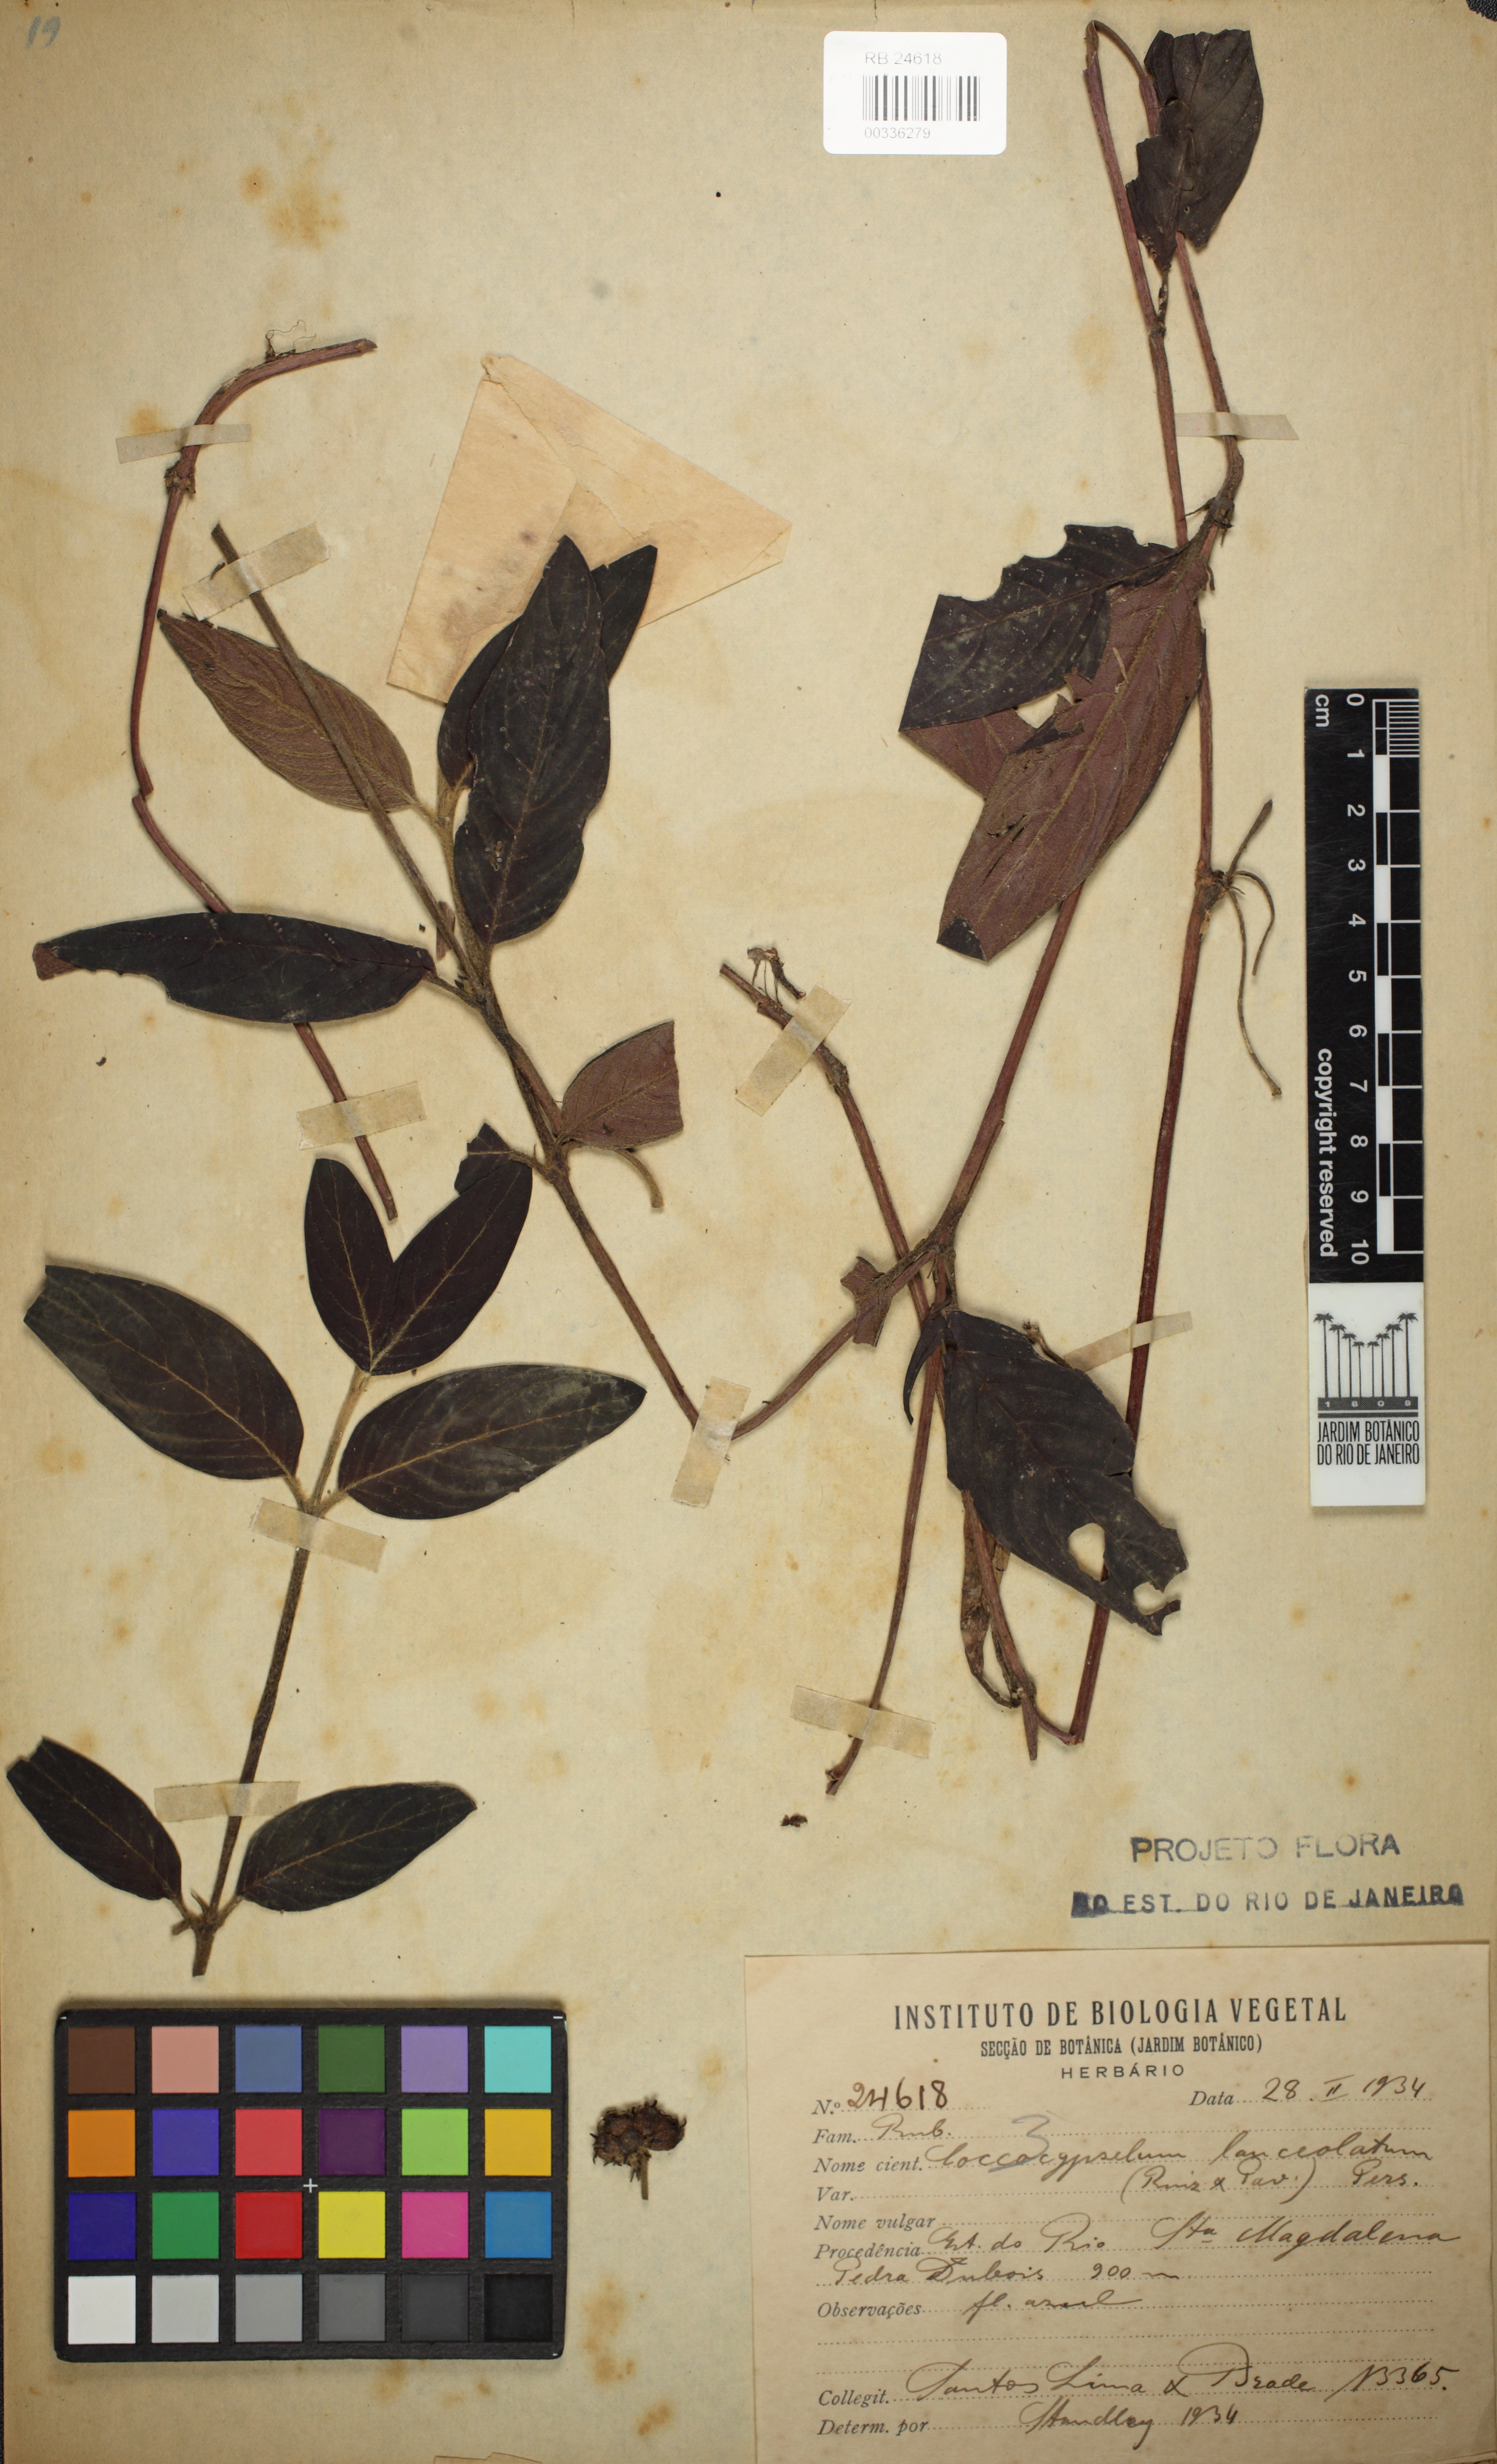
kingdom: Plantae
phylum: Tracheophyta
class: Magnoliopsida
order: Gentianales
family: Rubiaceae
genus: Coccocypselum
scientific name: Coccocypselum lanceolatum
